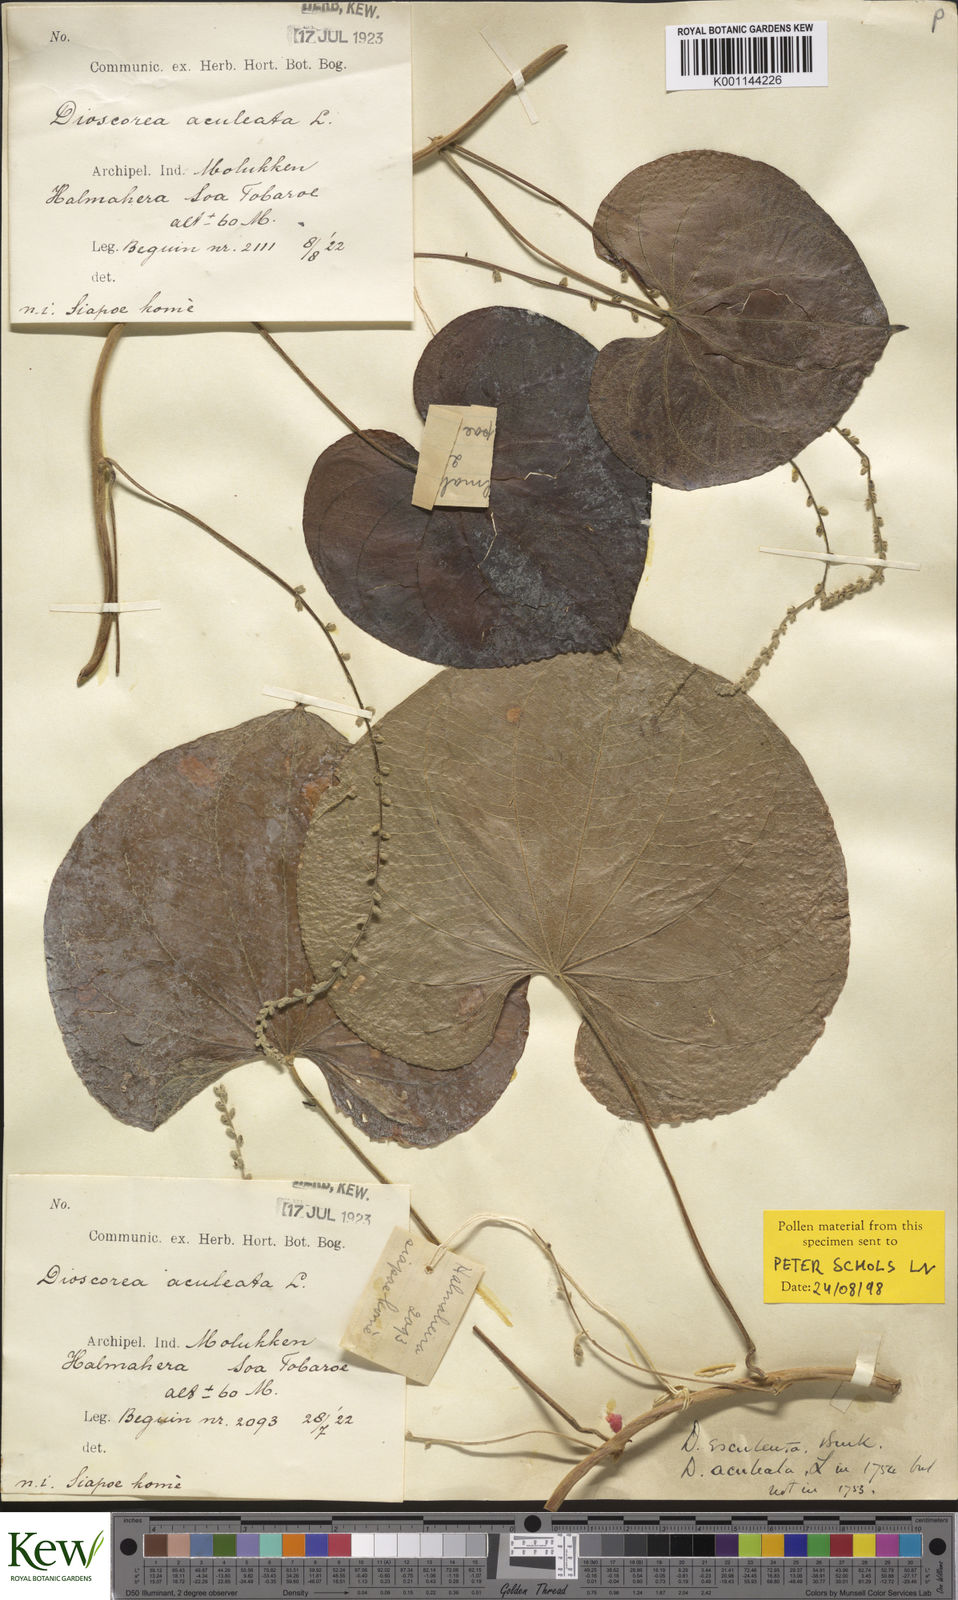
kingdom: Plantae
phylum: Tracheophyta
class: Liliopsida
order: Dioscoreales
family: Dioscoreaceae
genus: Dioscorea
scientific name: Dioscorea esculenta
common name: Chinese yam
